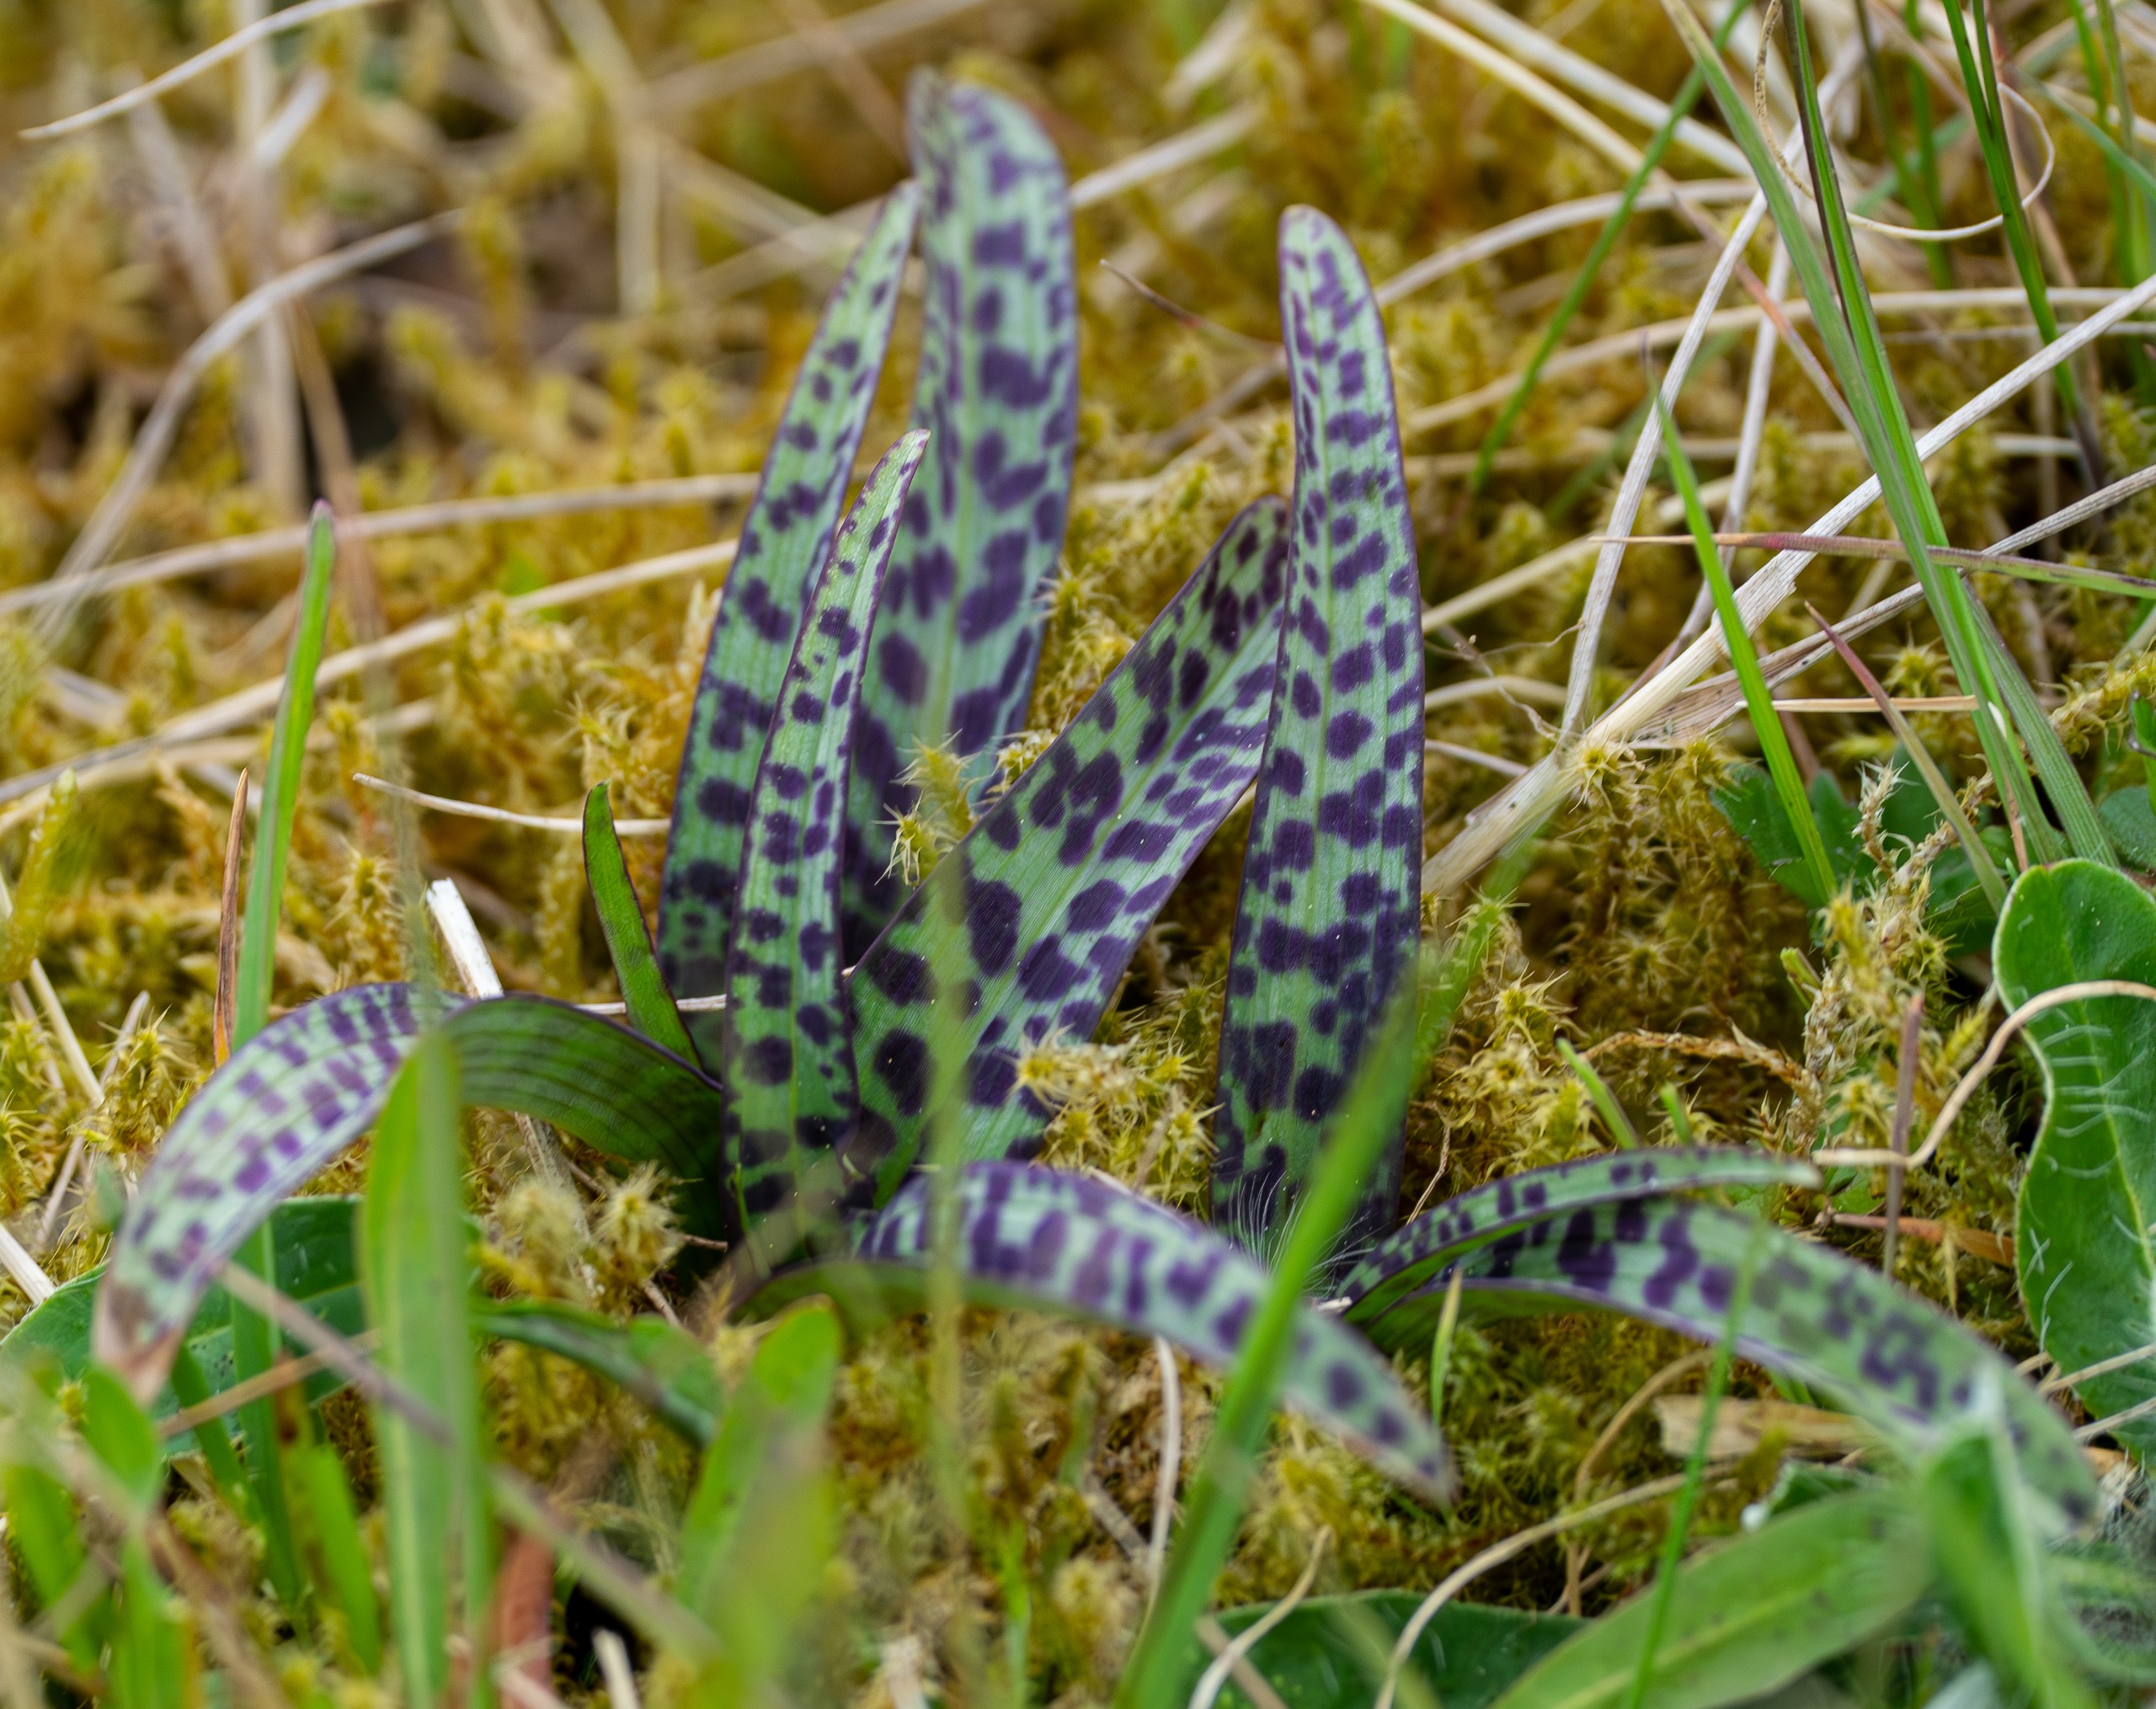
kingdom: Plantae
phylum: Tracheophyta
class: Liliopsida
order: Asparagales
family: Orchidaceae
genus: Dactylorhiza
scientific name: Dactylorhiza maculata
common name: Plettet gøgeurt
